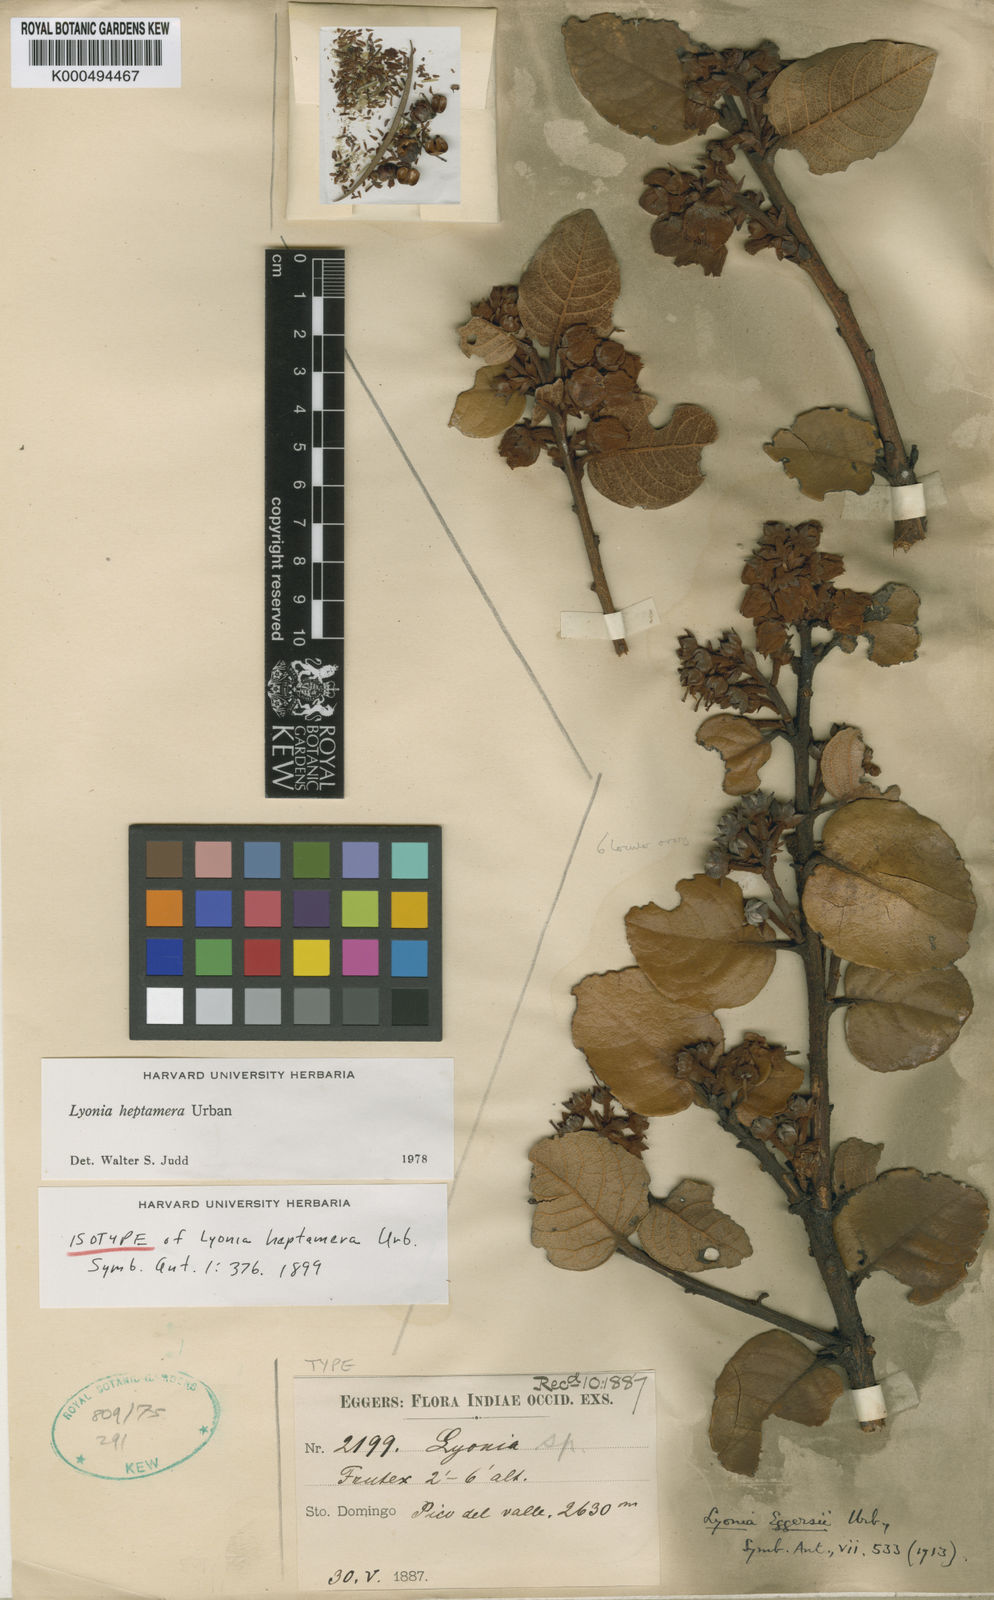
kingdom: Plantae
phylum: Tracheophyta
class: Magnoliopsida
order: Ericales
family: Ericaceae
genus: Lyonia
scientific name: Lyonia heptamera
